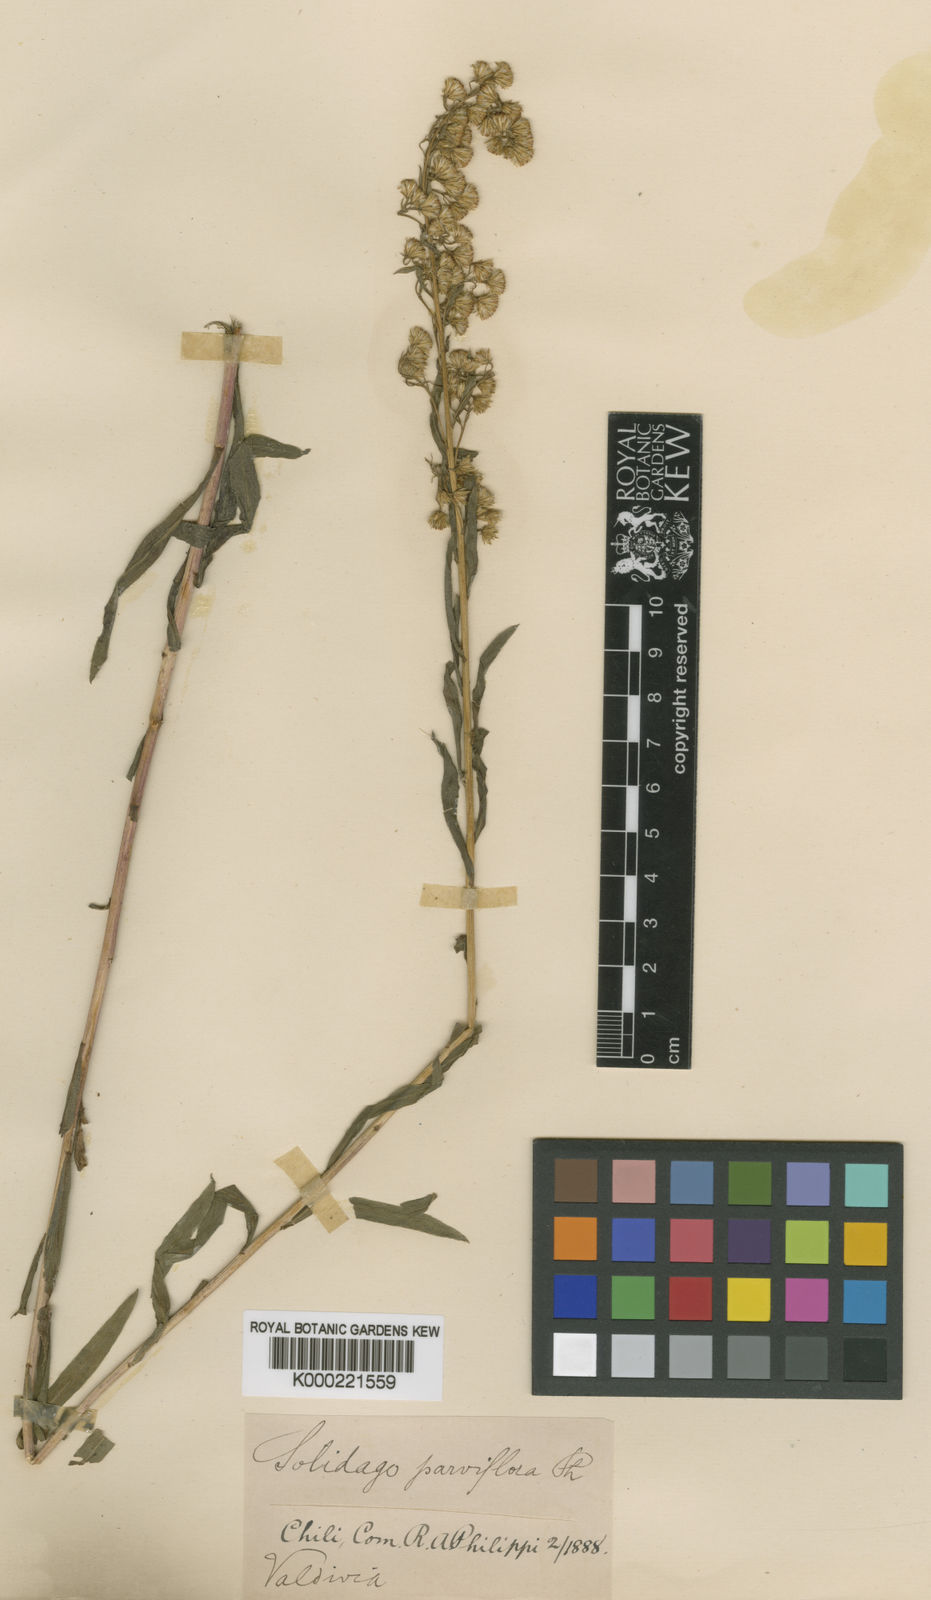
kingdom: Plantae
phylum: Tracheophyta
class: Magnoliopsida
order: Asterales
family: Asteraceae
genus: Solidago
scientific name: Solidago chilensis
